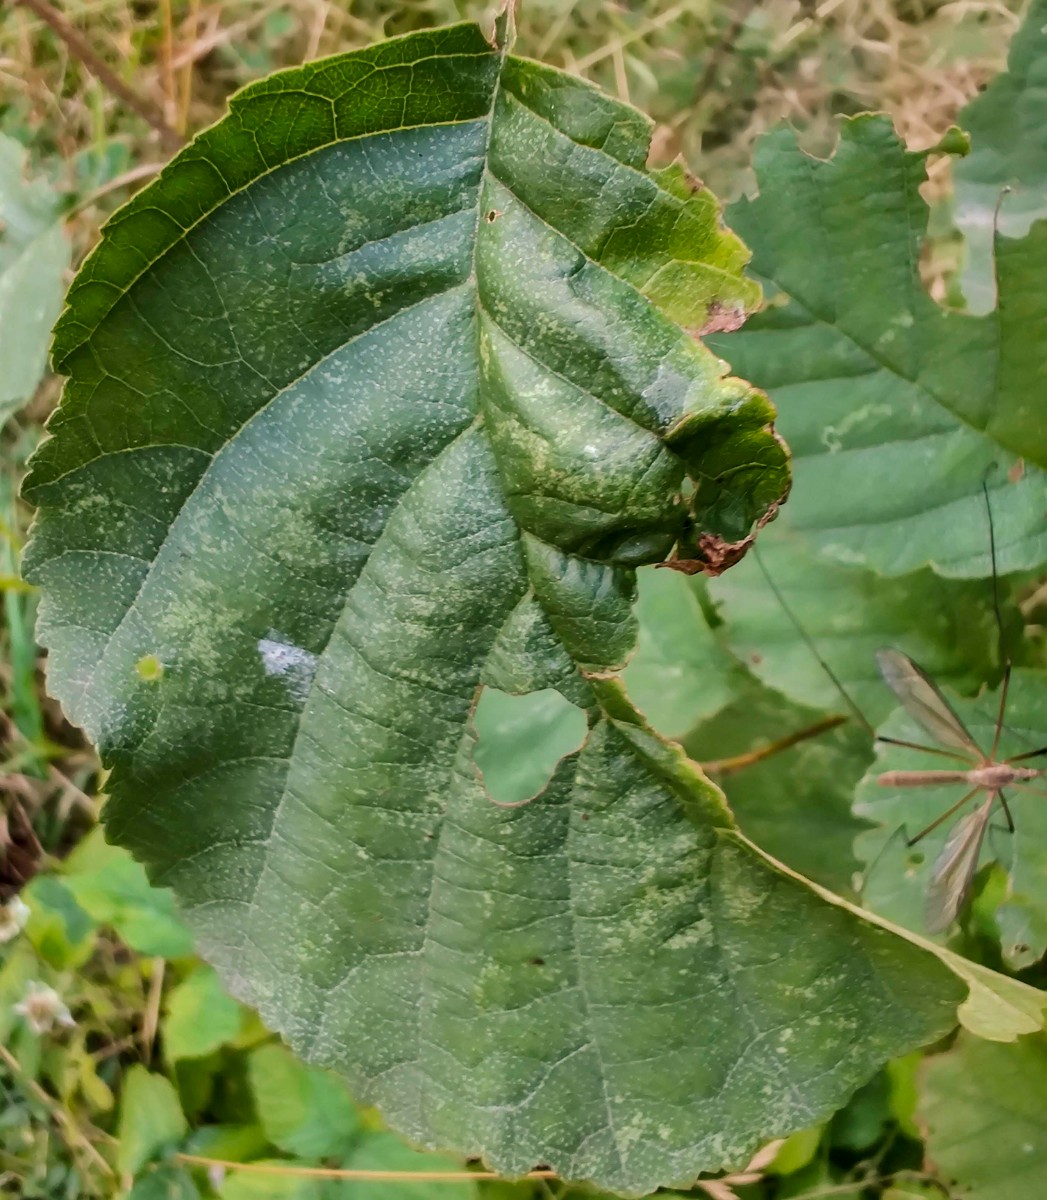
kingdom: Fungi
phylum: Ascomycota
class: Taphrinomycetes
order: Taphrinales
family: Taphrinaceae
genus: Taphrina
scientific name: Taphrina sadebeckii
